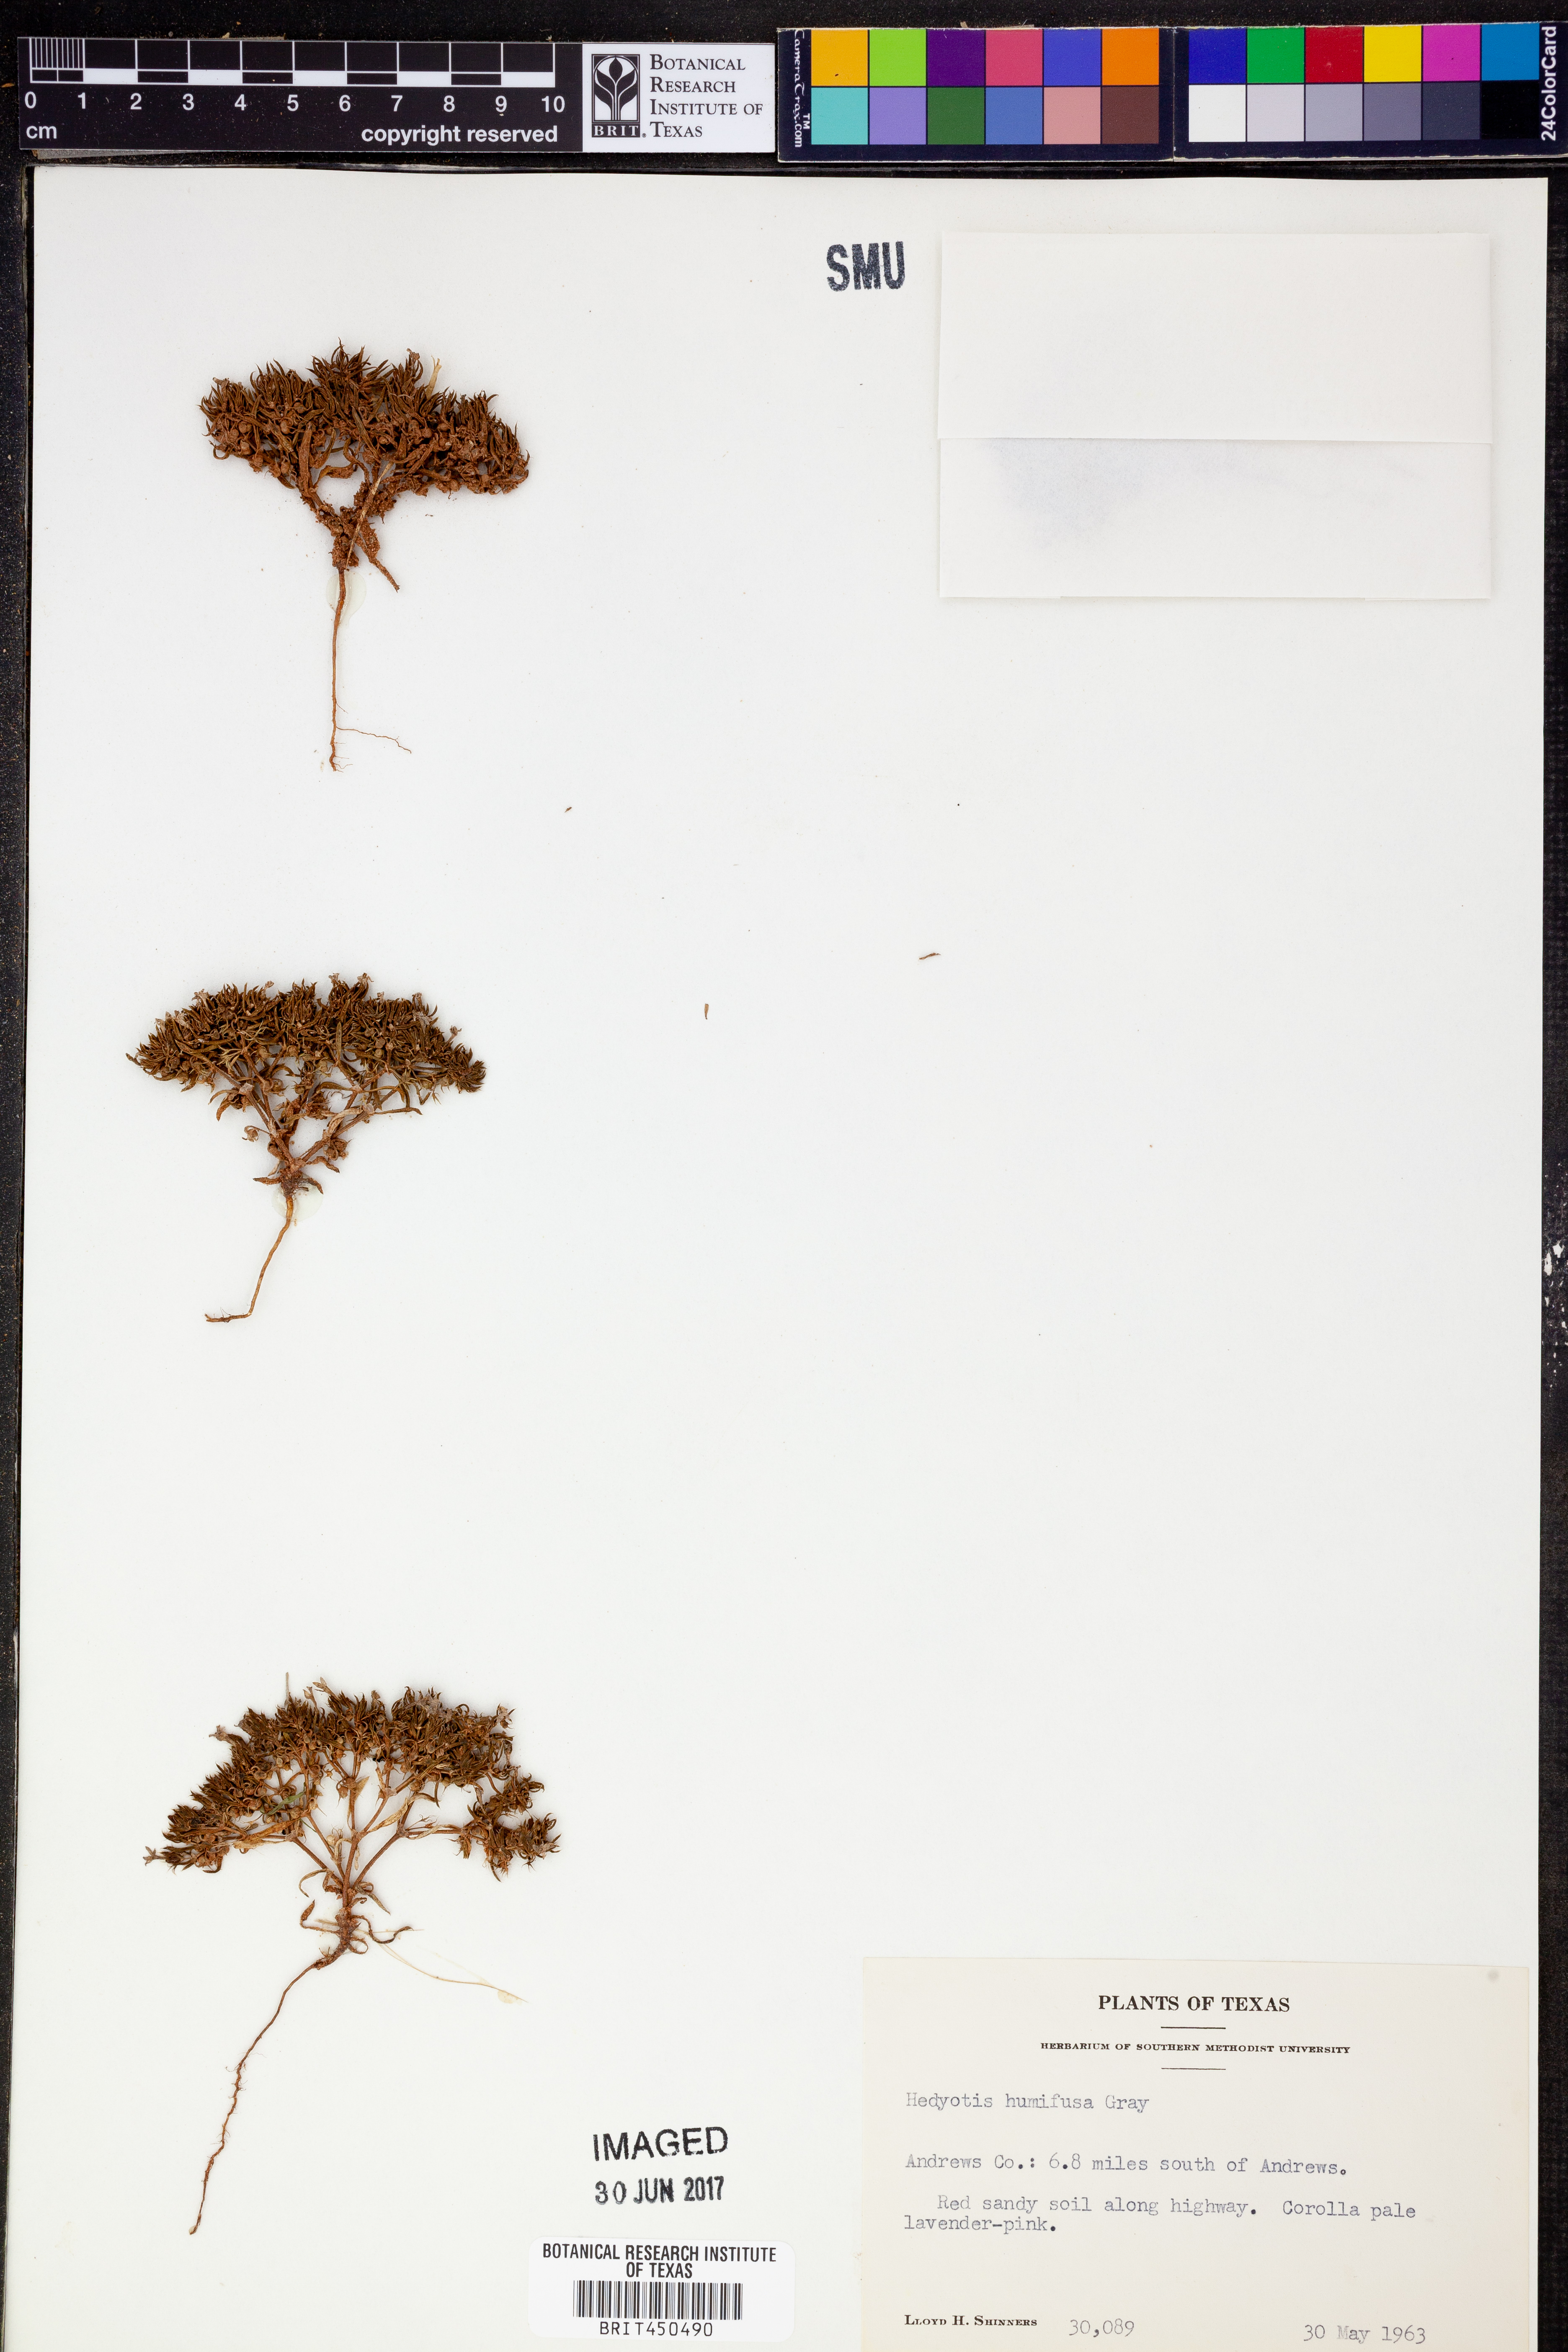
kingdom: Plantae
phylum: Tracheophyta
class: Magnoliopsida
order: Gentianales
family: Rubiaceae
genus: Houstonia
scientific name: Houstonia humifusa
